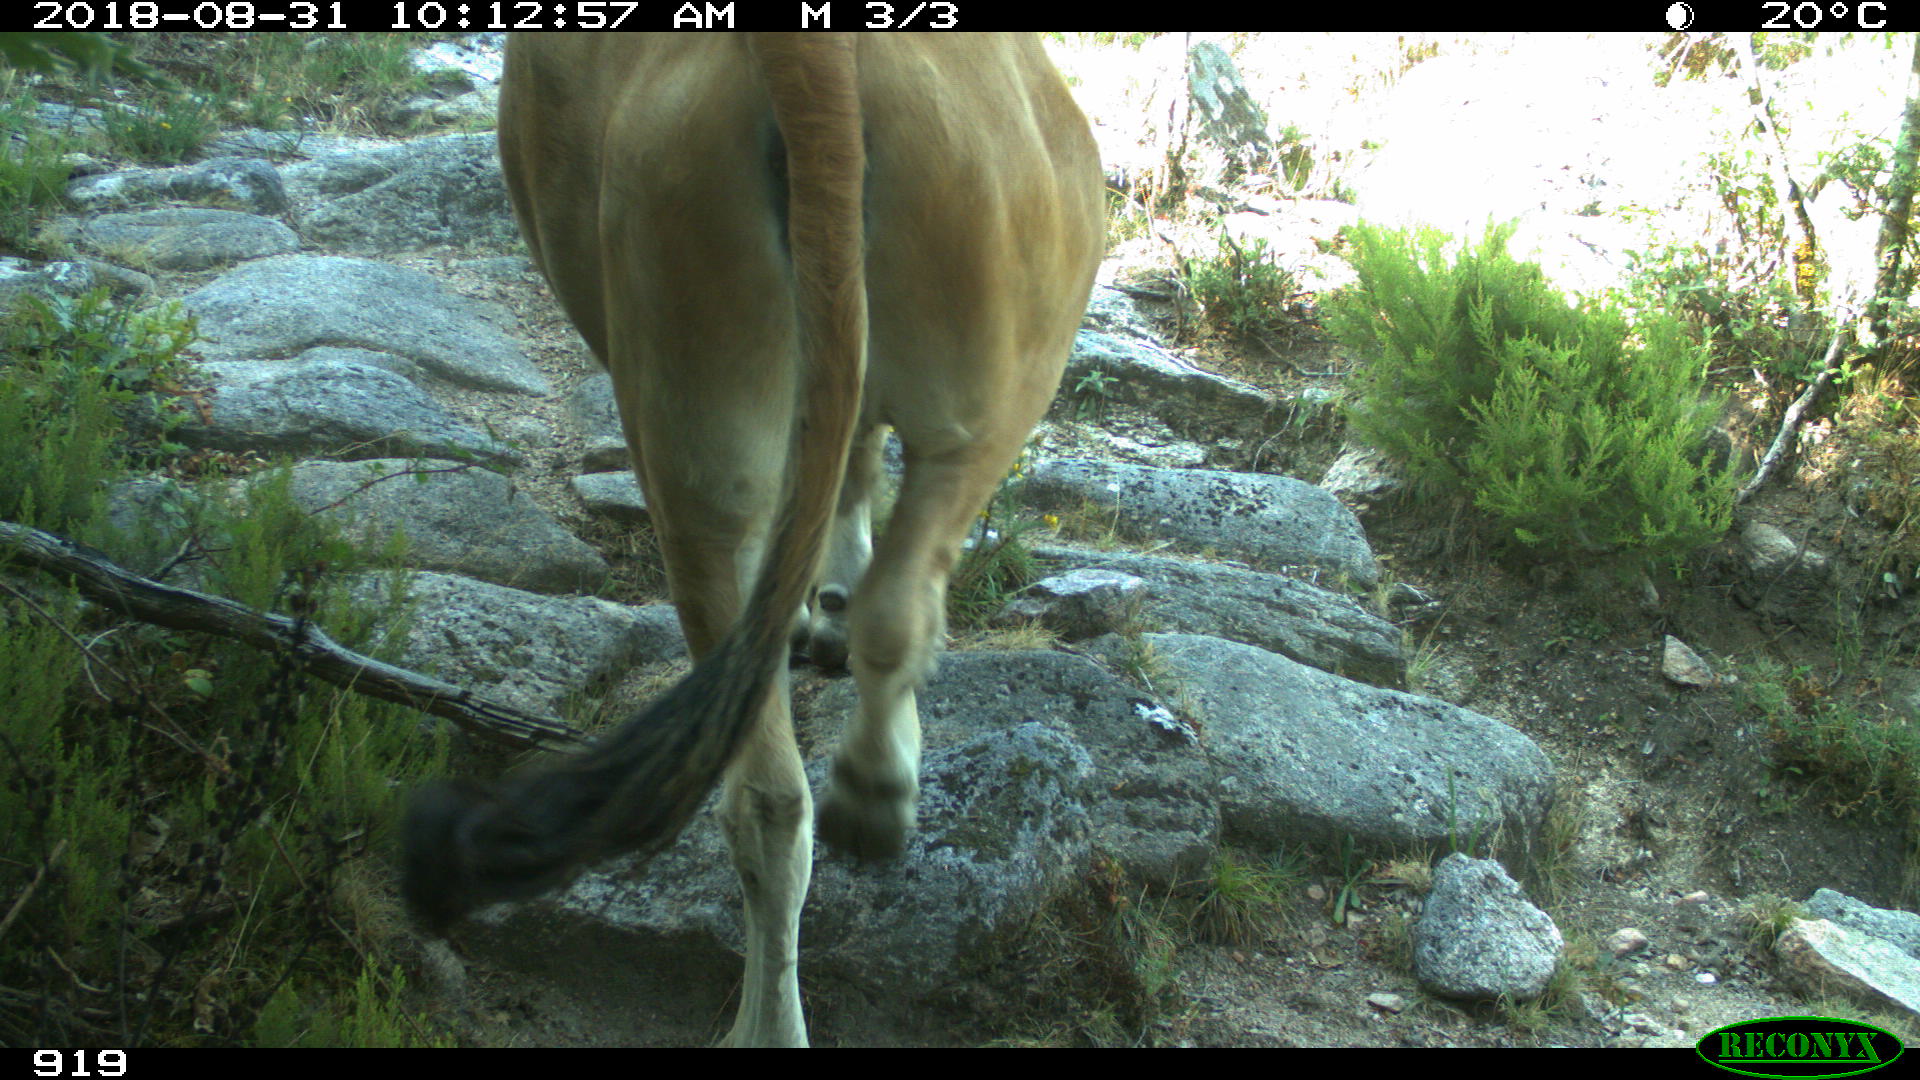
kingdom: Animalia
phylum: Chordata
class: Mammalia
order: Artiodactyla
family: Bovidae
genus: Bos
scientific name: Bos taurus
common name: Domesticated cattle
